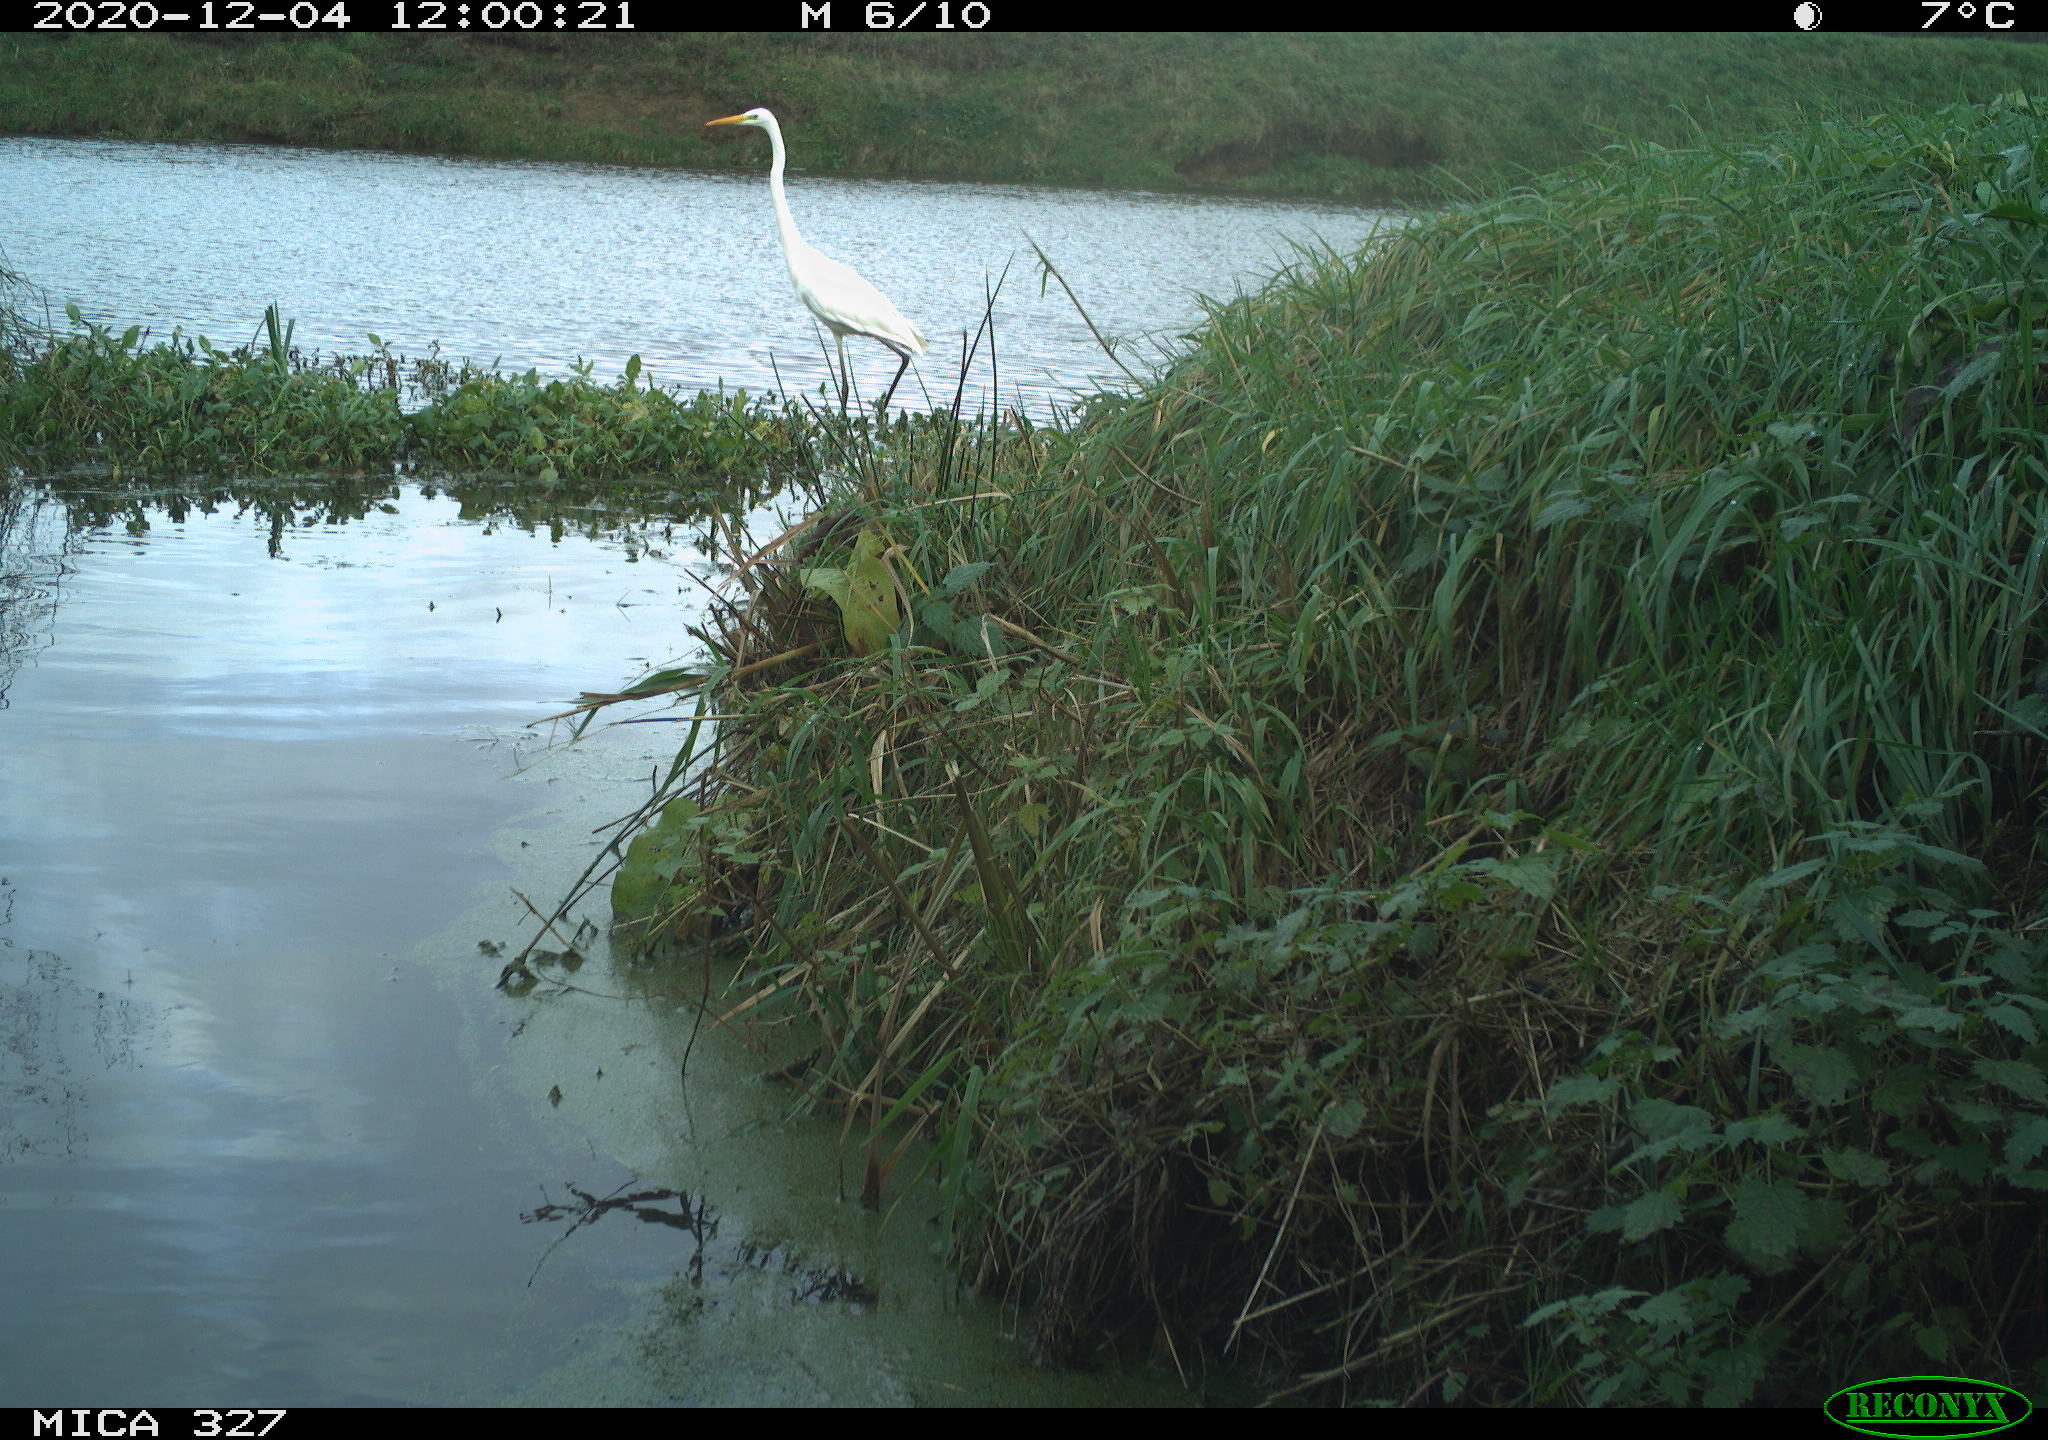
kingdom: Animalia
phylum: Chordata
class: Aves
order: Pelecaniformes
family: Ardeidae
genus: Ardea
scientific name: Ardea alba
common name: Great egret
